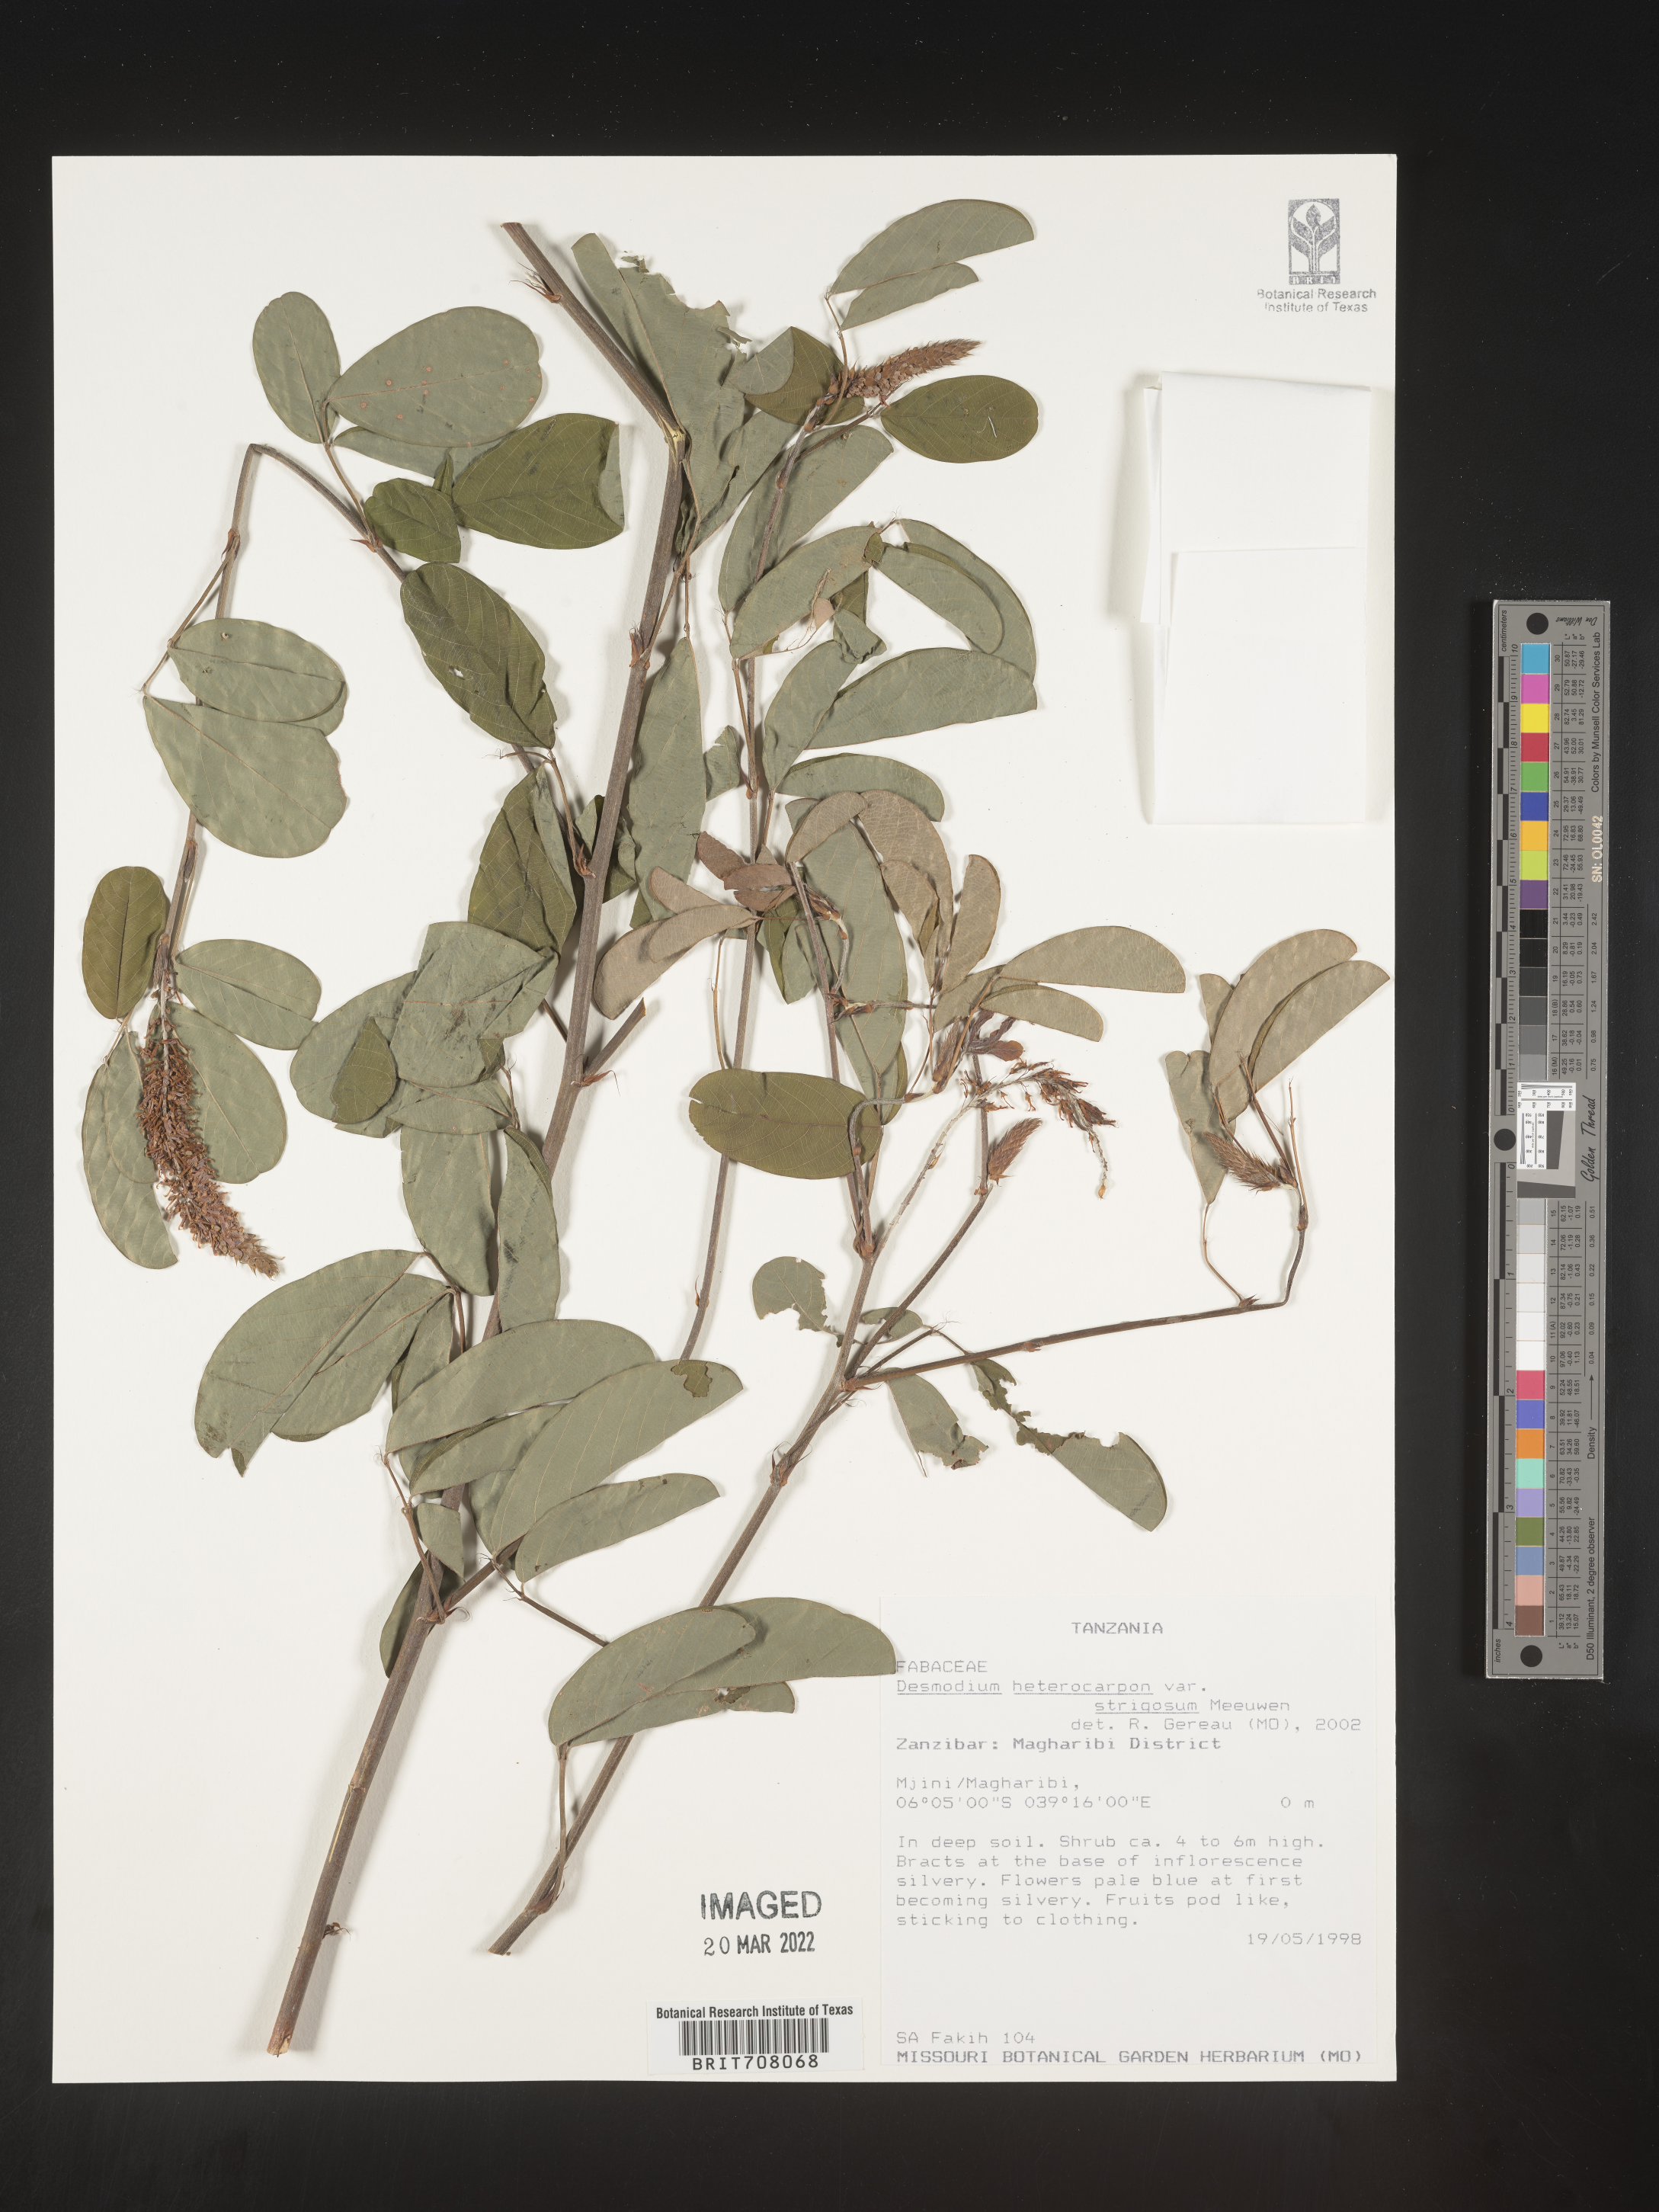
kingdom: Plantae
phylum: Tracheophyta
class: Magnoliopsida
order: Fabales
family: Fabaceae
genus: Desmodium
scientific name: Desmodium
